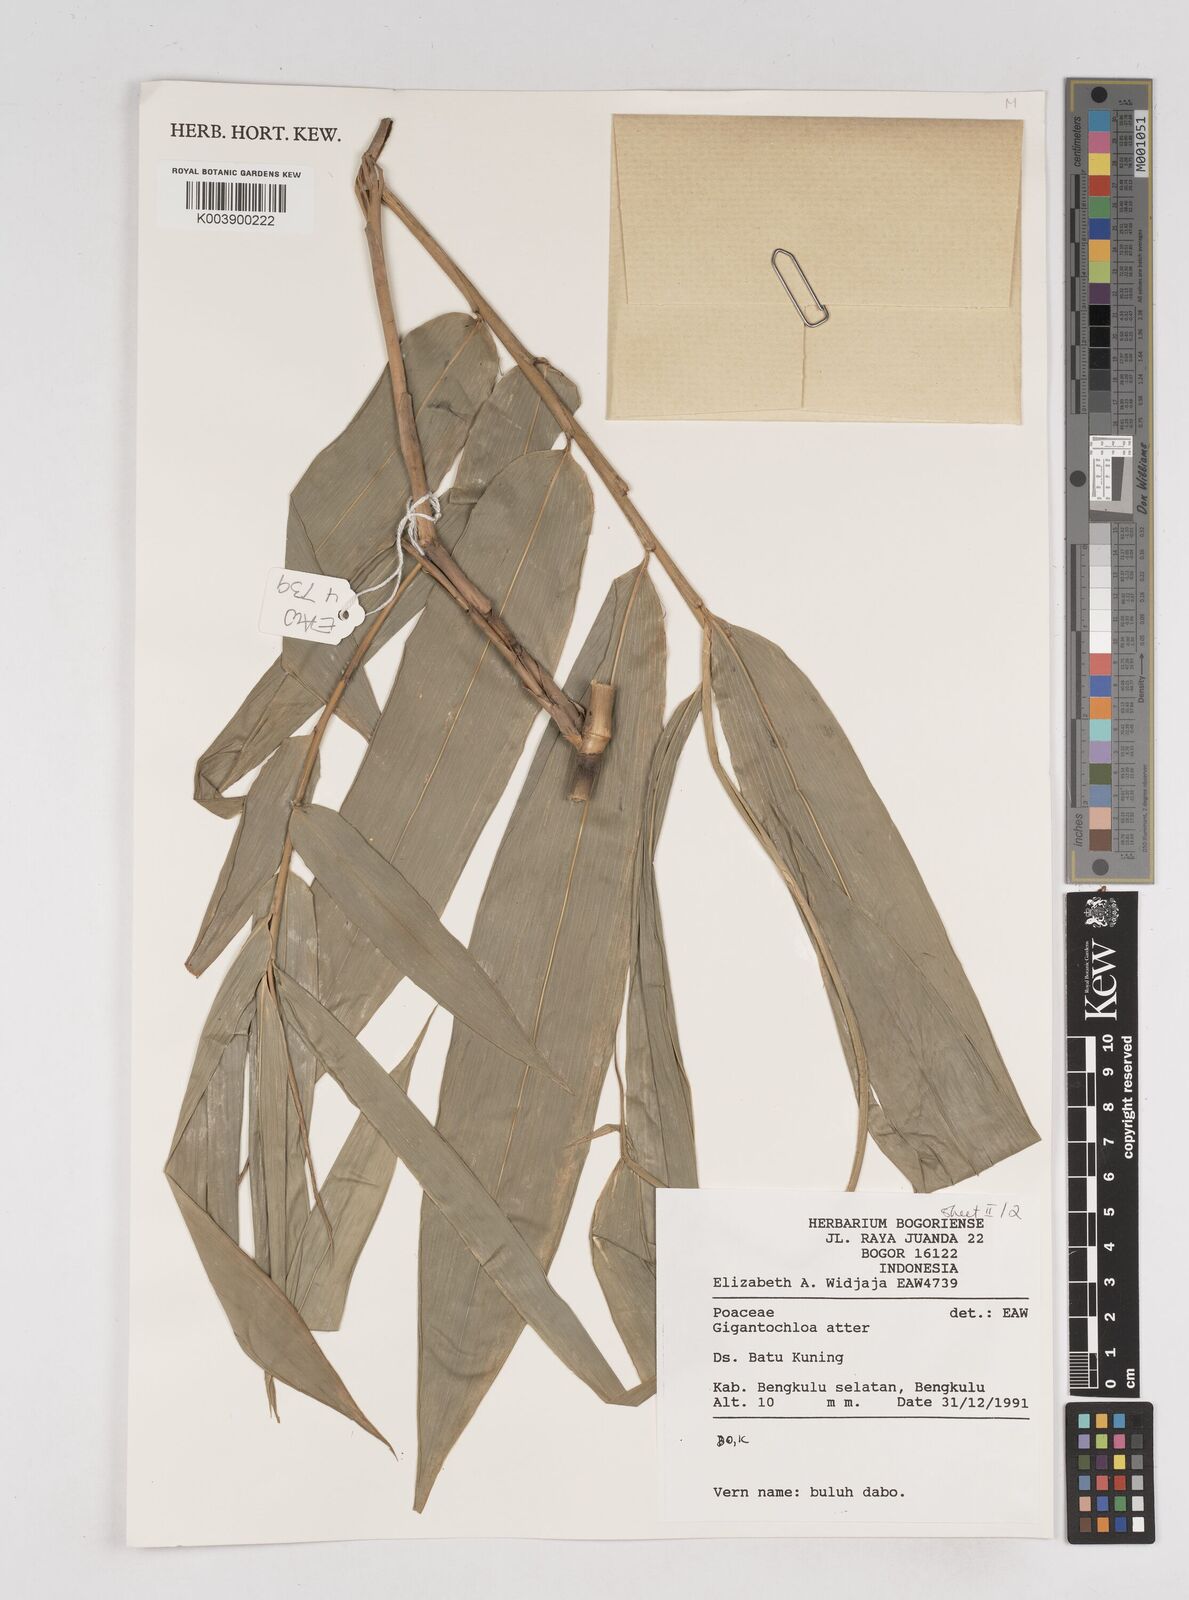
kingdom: Plantae
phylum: Tracheophyta
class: Liliopsida
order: Poales
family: Poaceae
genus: Gigantochloa
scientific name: Gigantochloa atter
